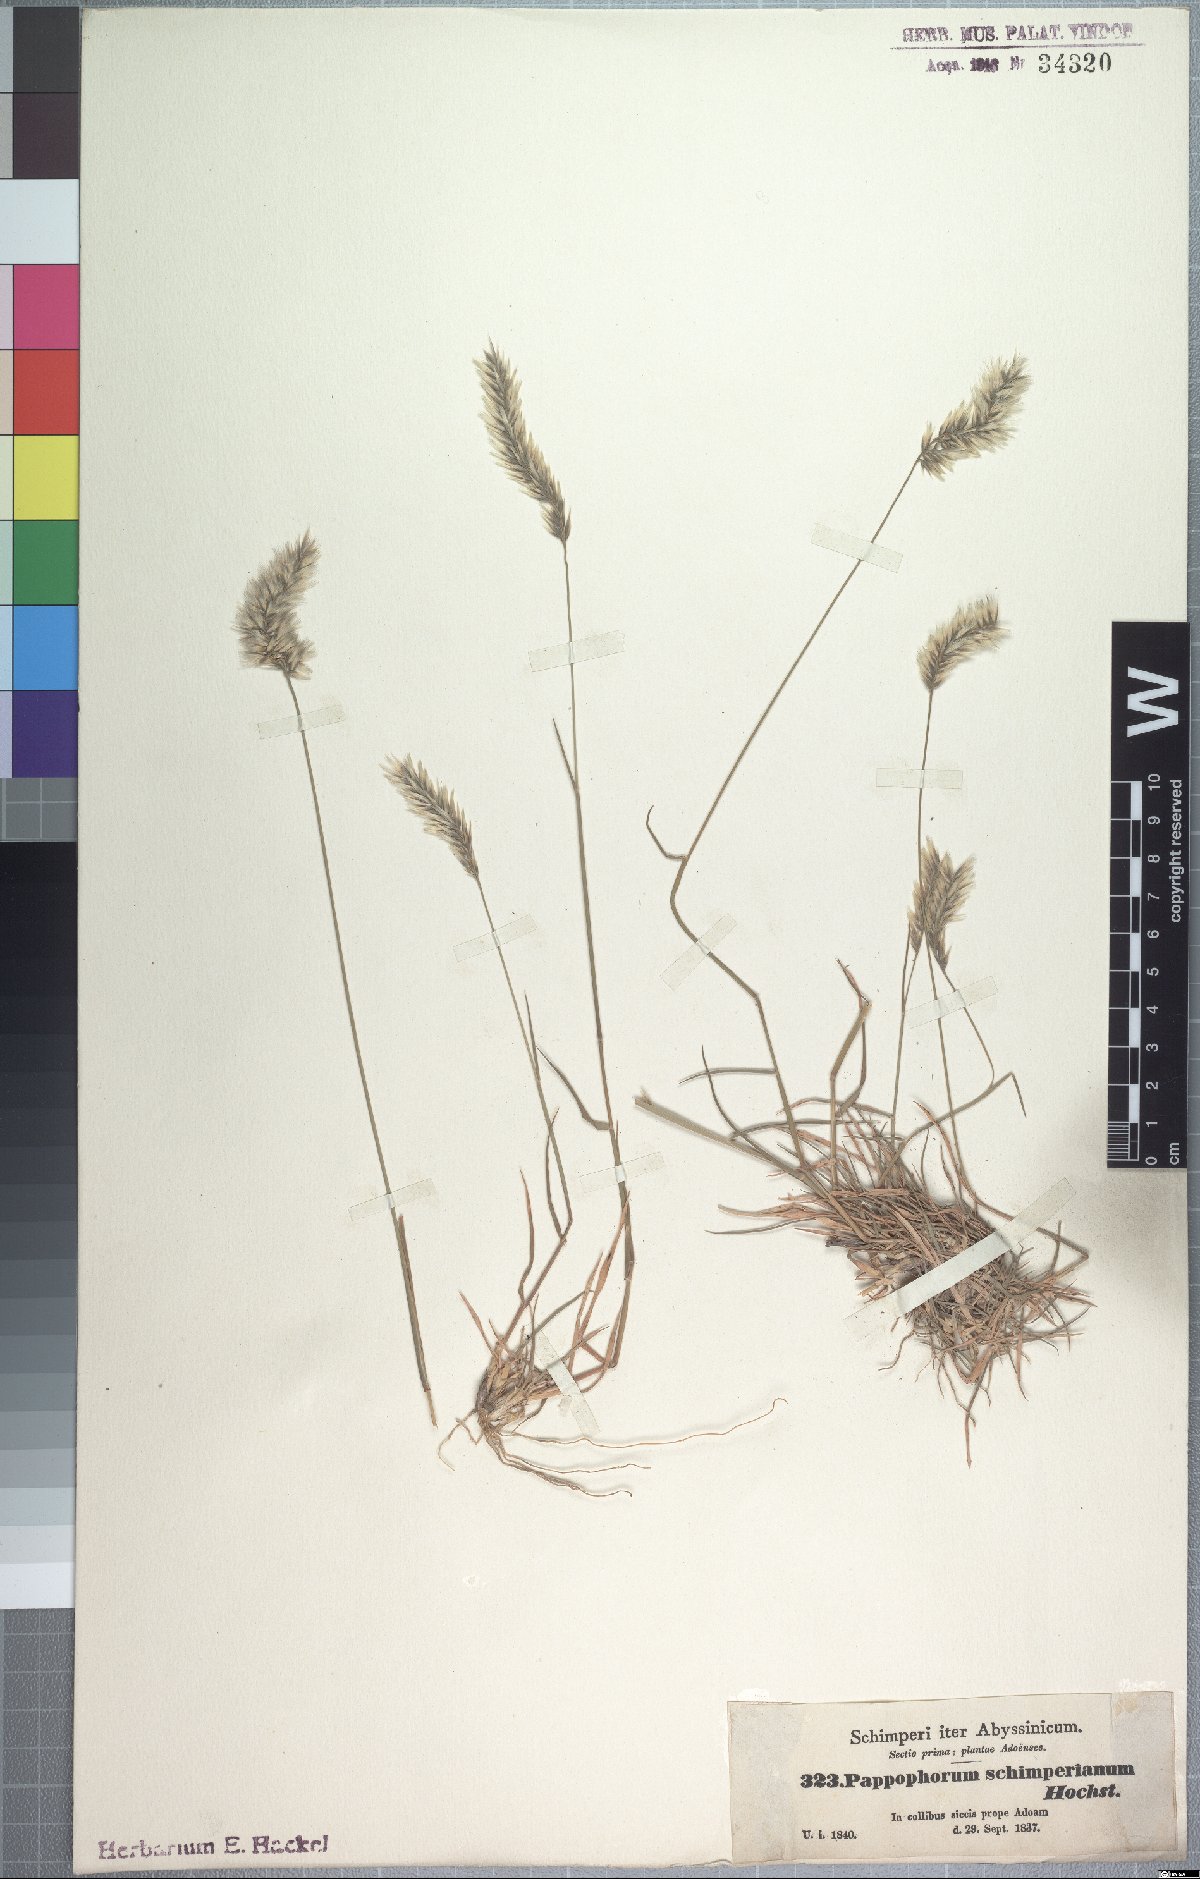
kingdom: Plantae
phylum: Tracheophyta
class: Liliopsida
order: Poales
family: Poaceae
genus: Enneapogon
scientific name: Enneapogon persicus
